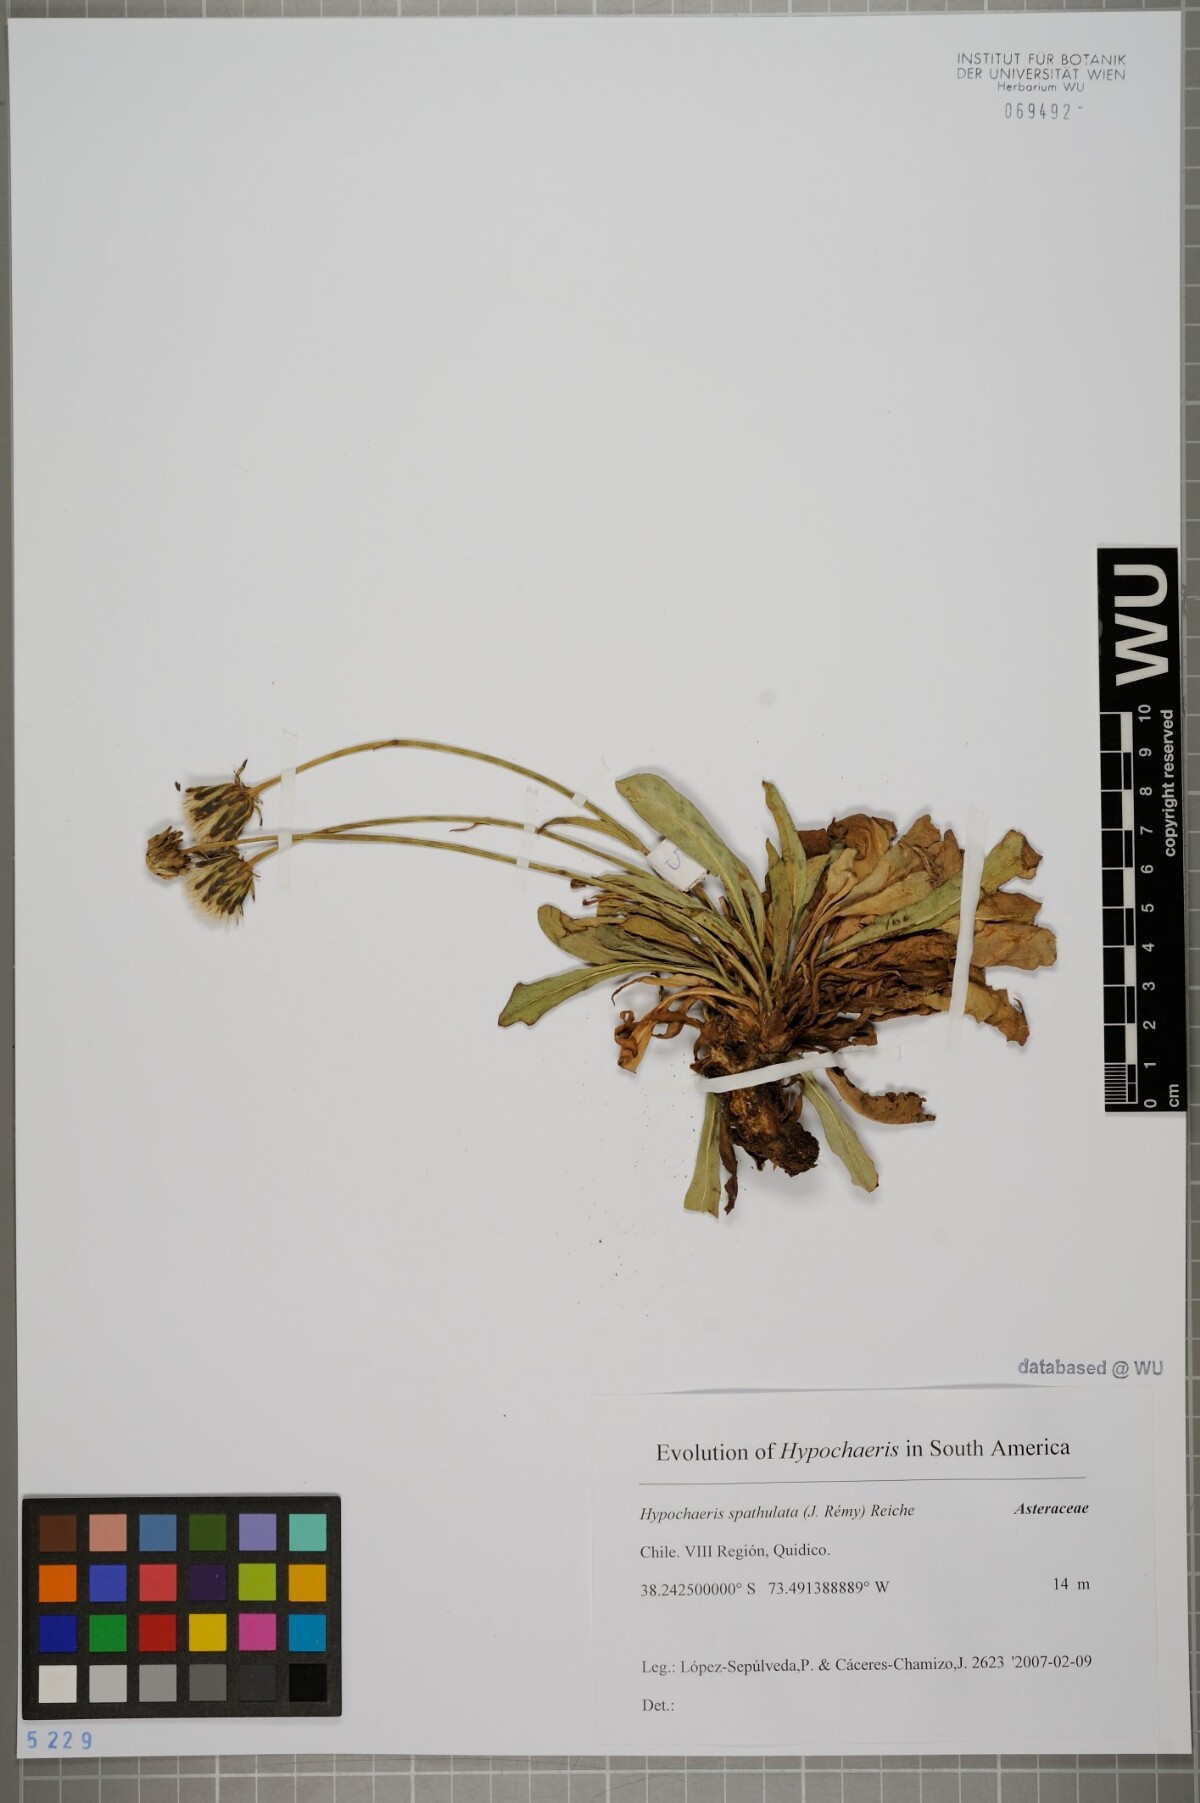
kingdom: Plantae
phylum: Tracheophyta
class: Magnoliopsida
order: Asterales
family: Asteraceae
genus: Hypochaeris
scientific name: Hypochaeris spathulata
